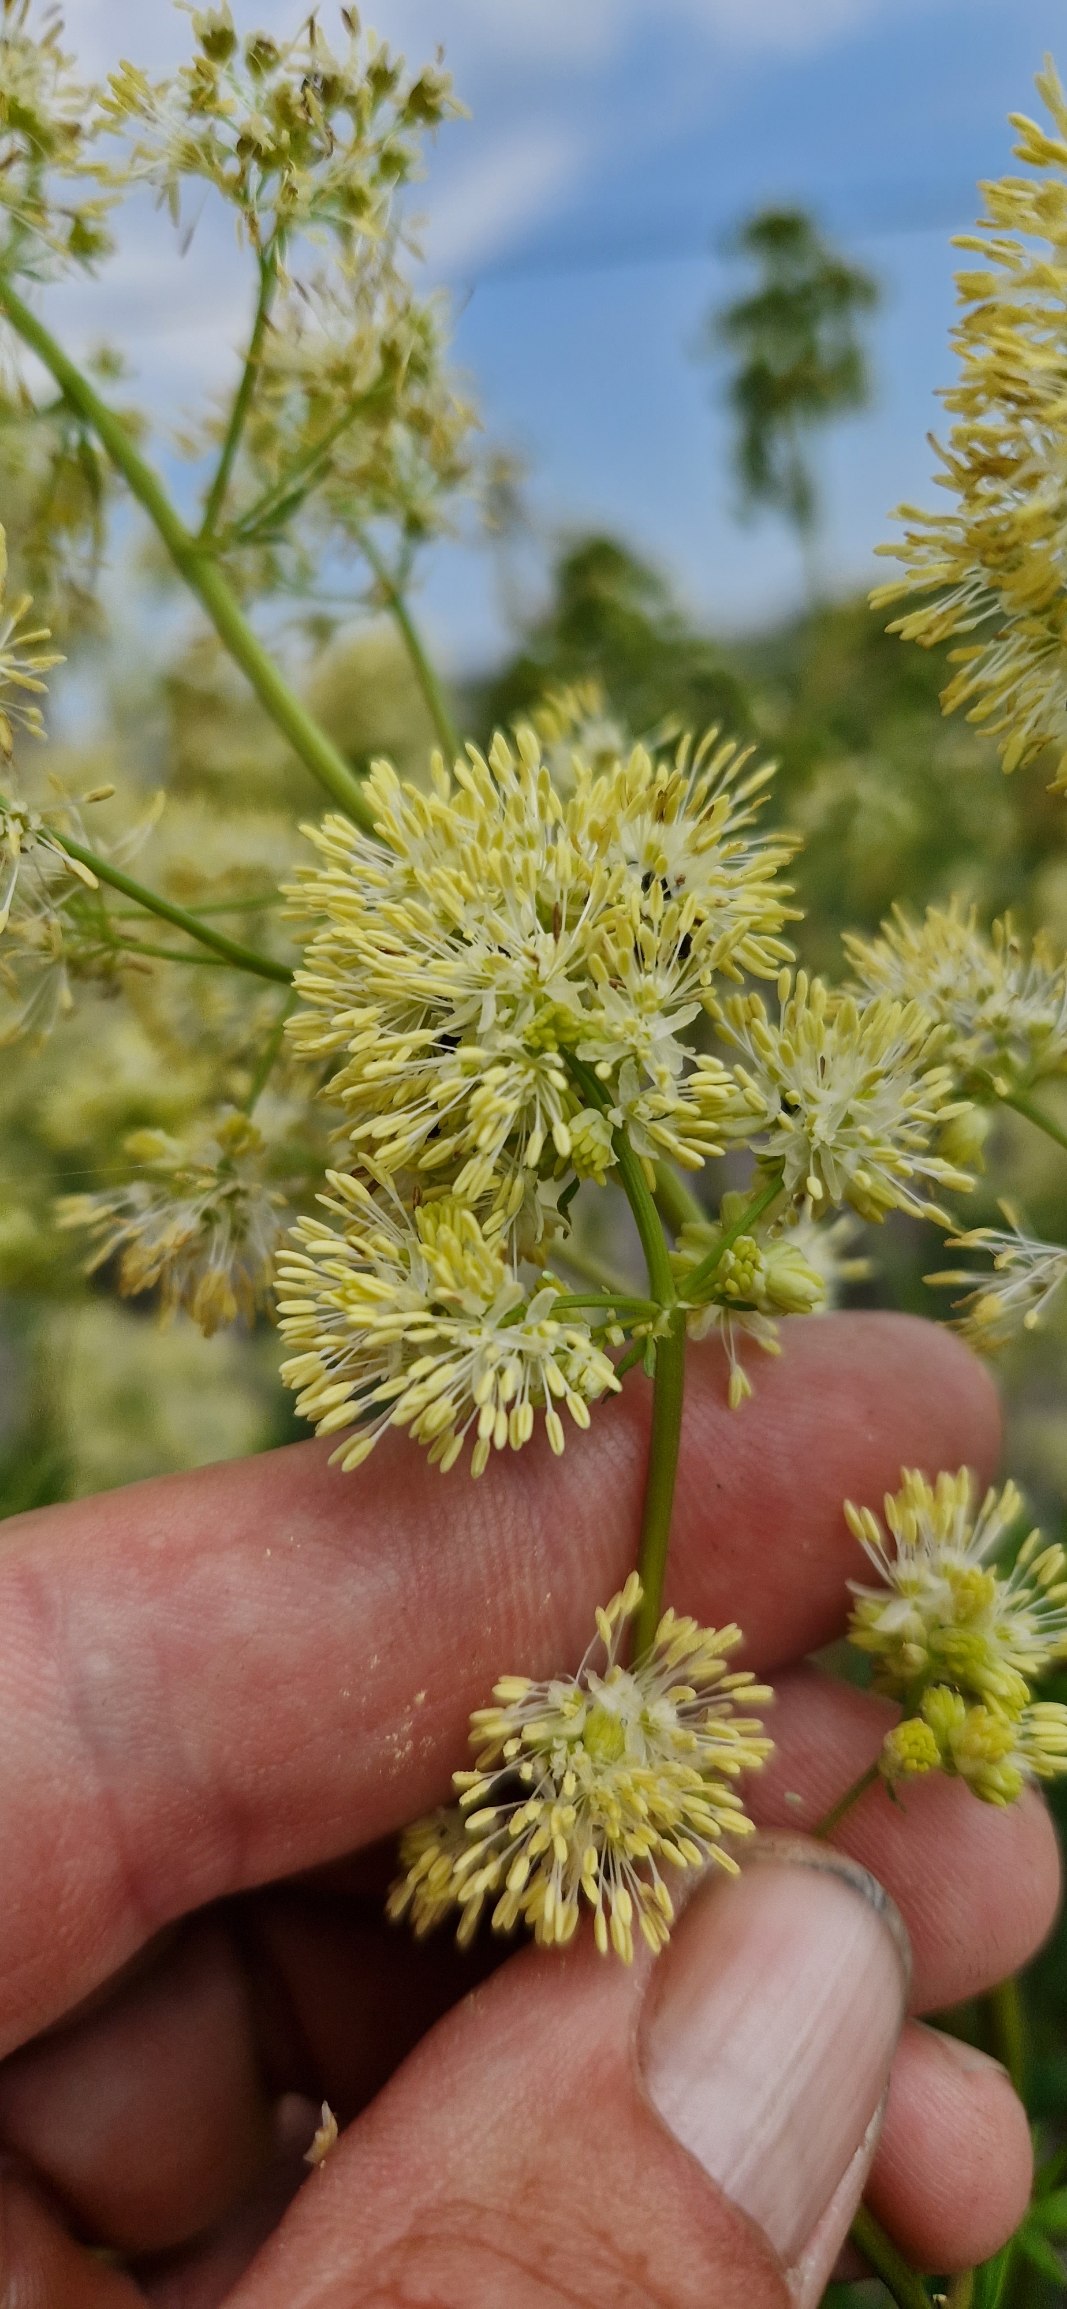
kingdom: Plantae
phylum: Tracheophyta
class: Magnoliopsida
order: Ranunculales
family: Ranunculaceae
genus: Thalictrum
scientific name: Thalictrum flavum
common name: Gul frøstjerne
